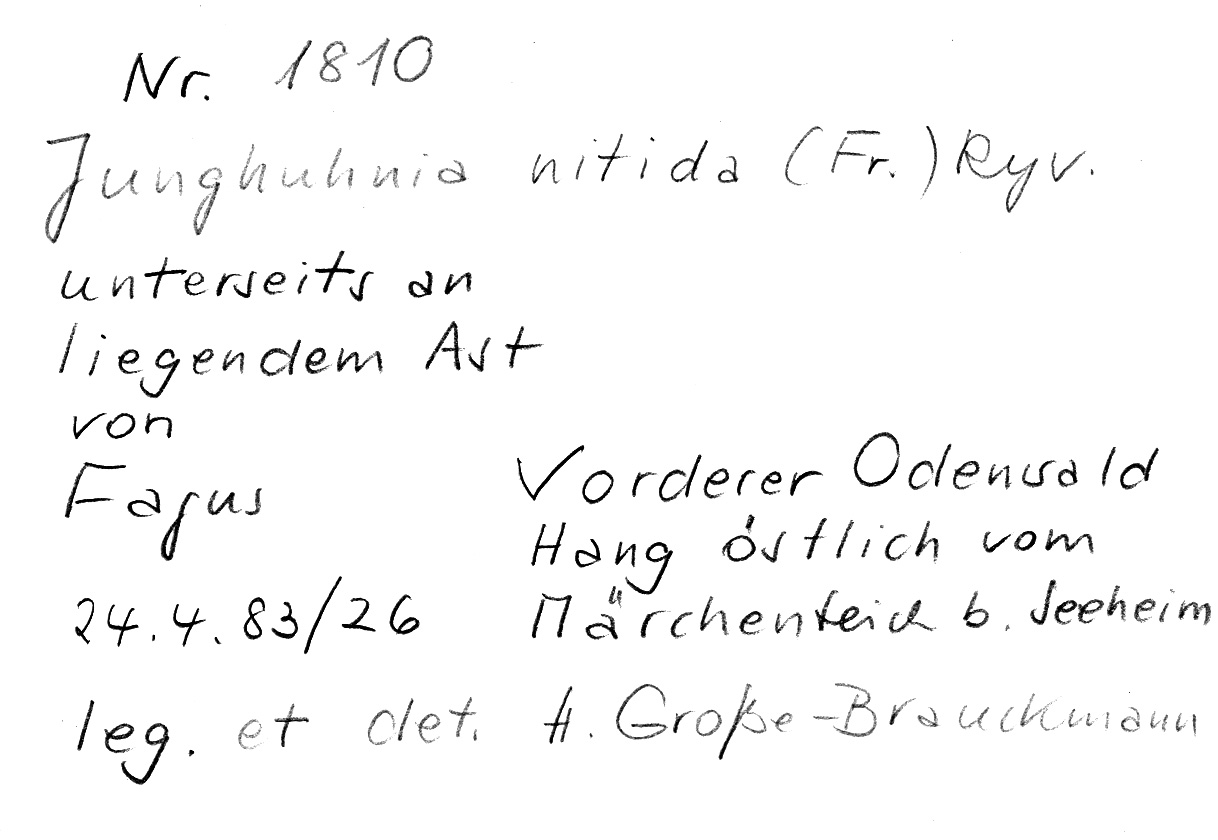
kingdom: Fungi
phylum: Basidiomycota
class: Agaricomycetes
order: Polyporales
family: Steccherinaceae
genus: Junghuhnia
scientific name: Junghuhnia nitida
